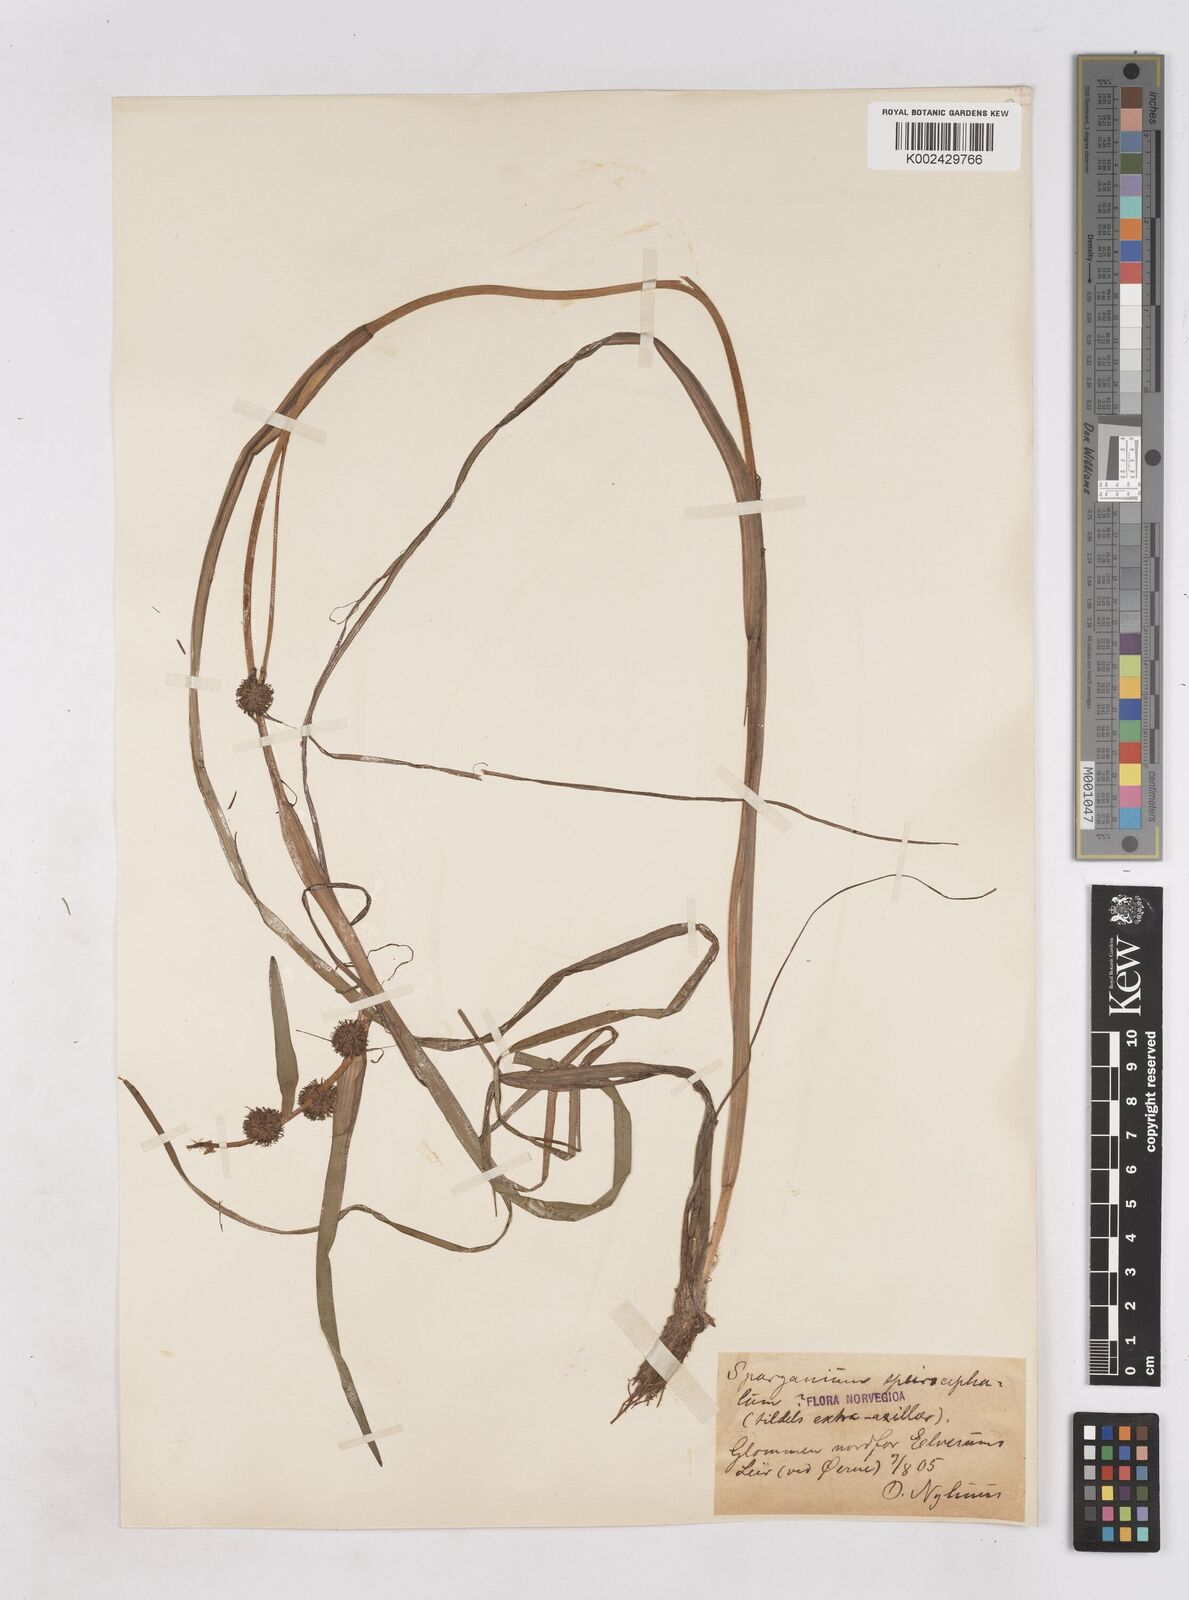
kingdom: Plantae
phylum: Tracheophyta
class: Liliopsida
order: Poales
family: Typhaceae
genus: Sparganium
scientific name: Sparganium angustifolium
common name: Floating bur-reed
